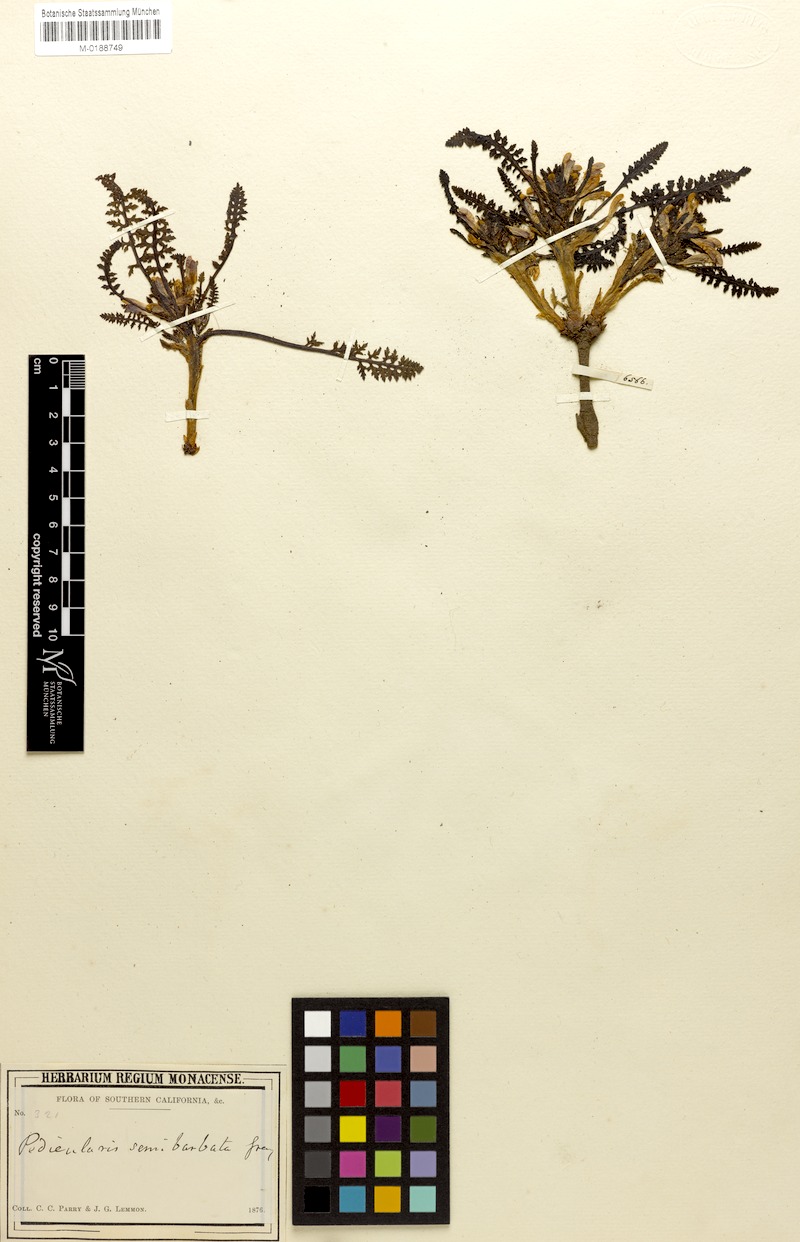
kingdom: Plantae
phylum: Tracheophyta
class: Magnoliopsida
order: Lamiales
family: Orobanchaceae
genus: Pedicularis
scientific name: Pedicularis semibarbata
